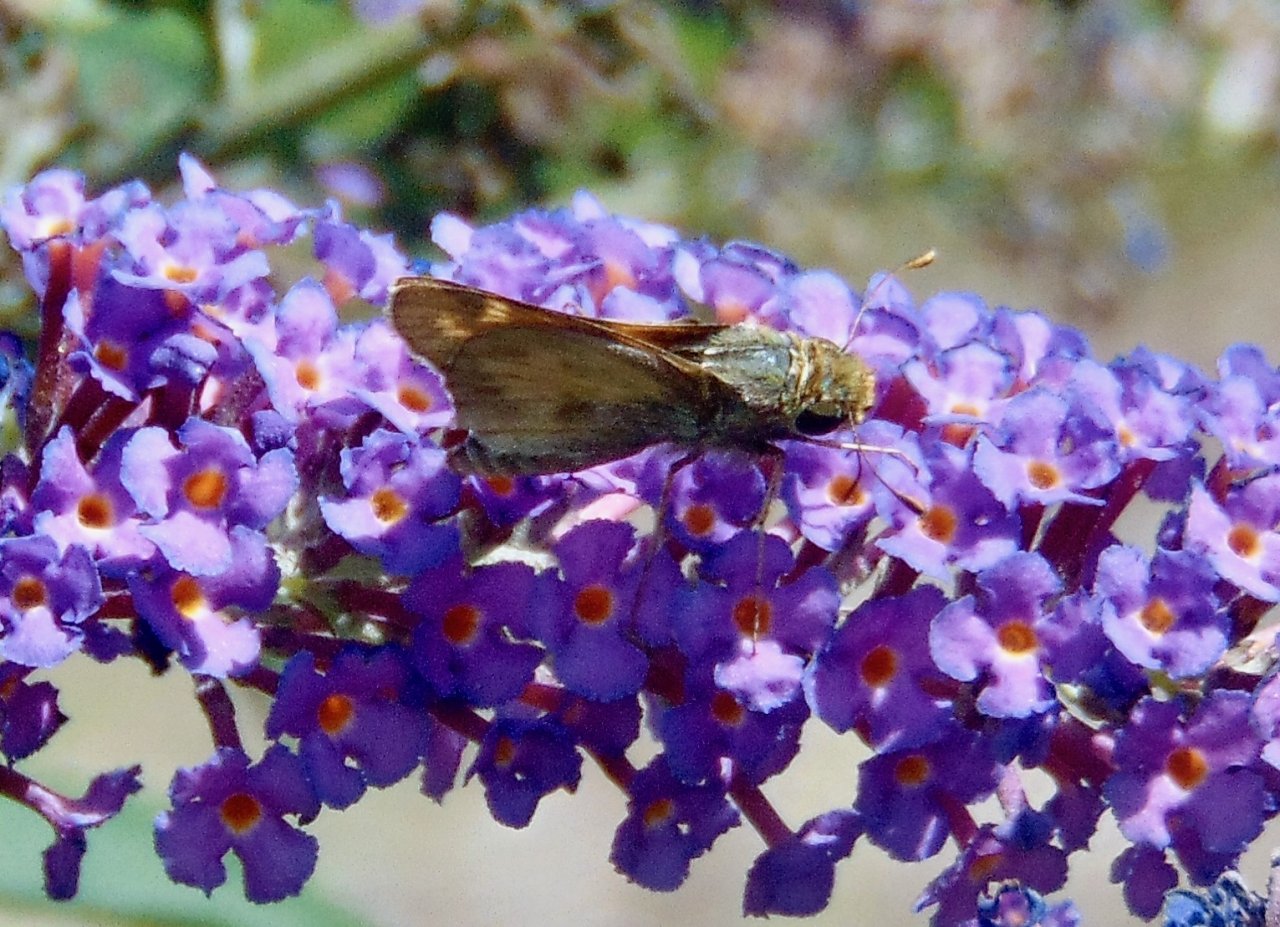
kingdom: Animalia
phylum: Arthropoda
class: Insecta
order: Lepidoptera
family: Hesperiidae
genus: Atalopedes
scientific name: Atalopedes campestris
